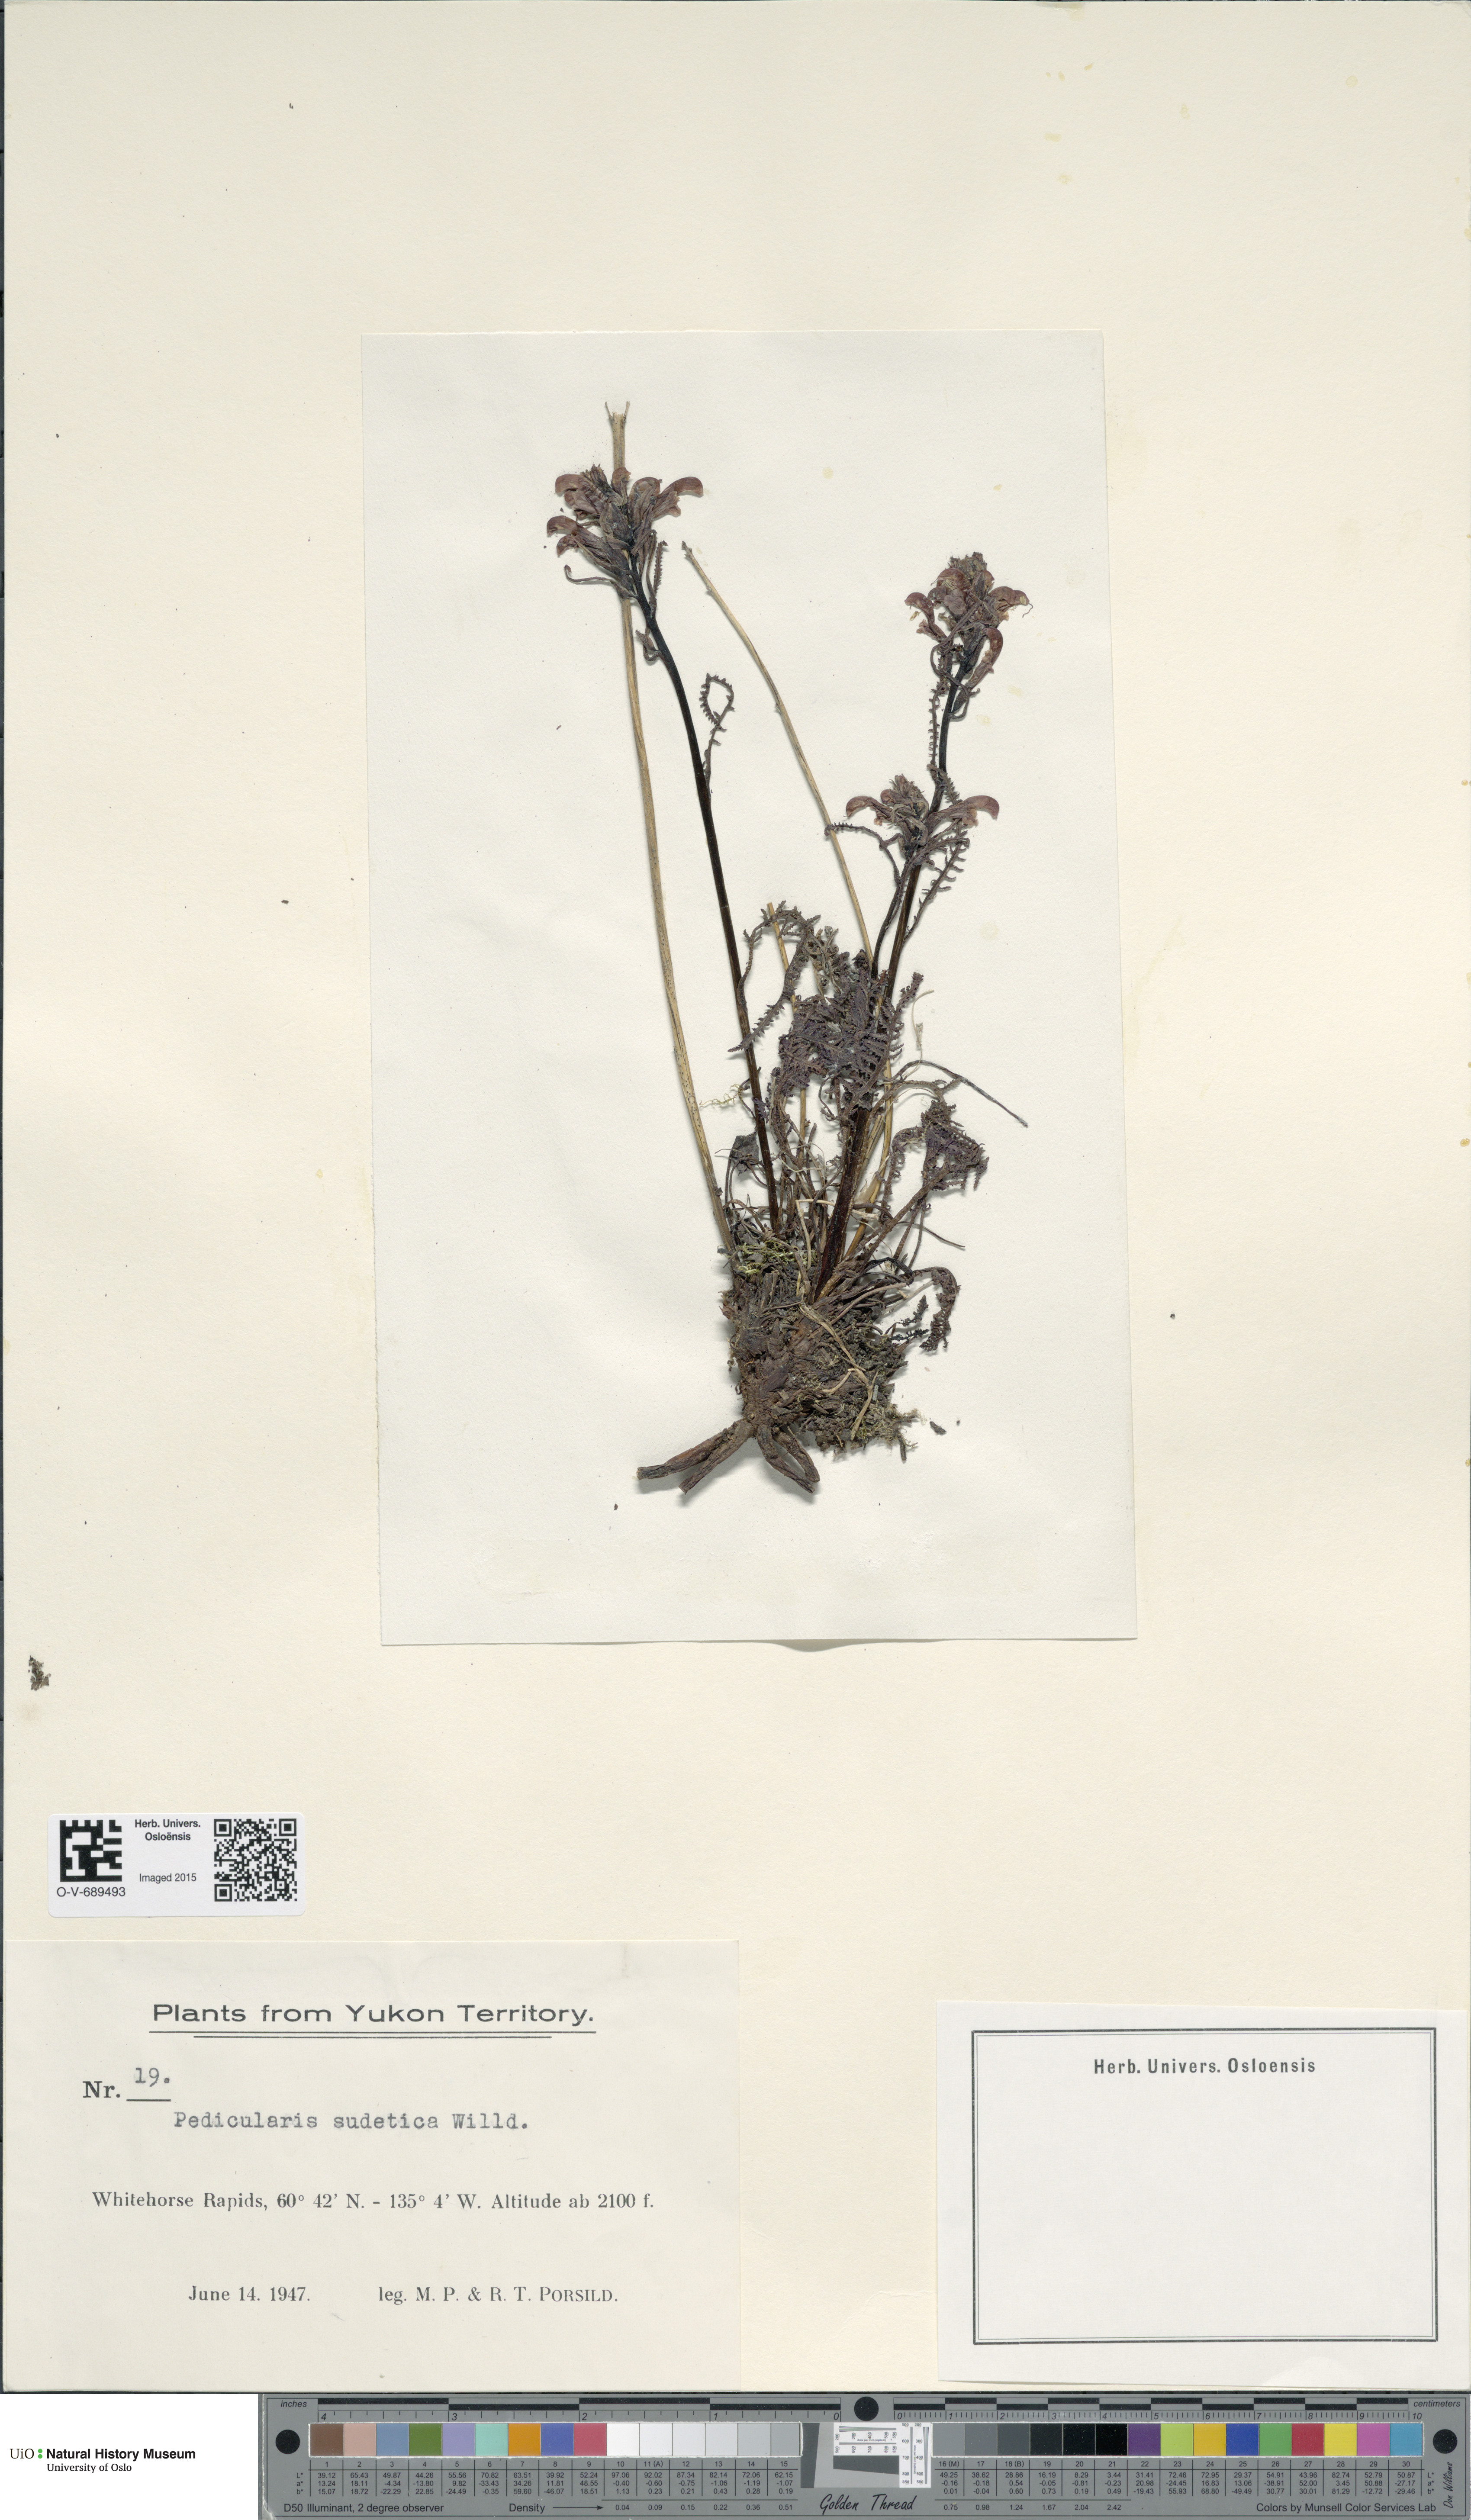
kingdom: Plantae
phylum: Tracheophyta
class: Magnoliopsida
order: Lamiales
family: Orobanchaceae
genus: Pedicularis
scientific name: Pedicularis sudetica
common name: Sudeten lousewort
